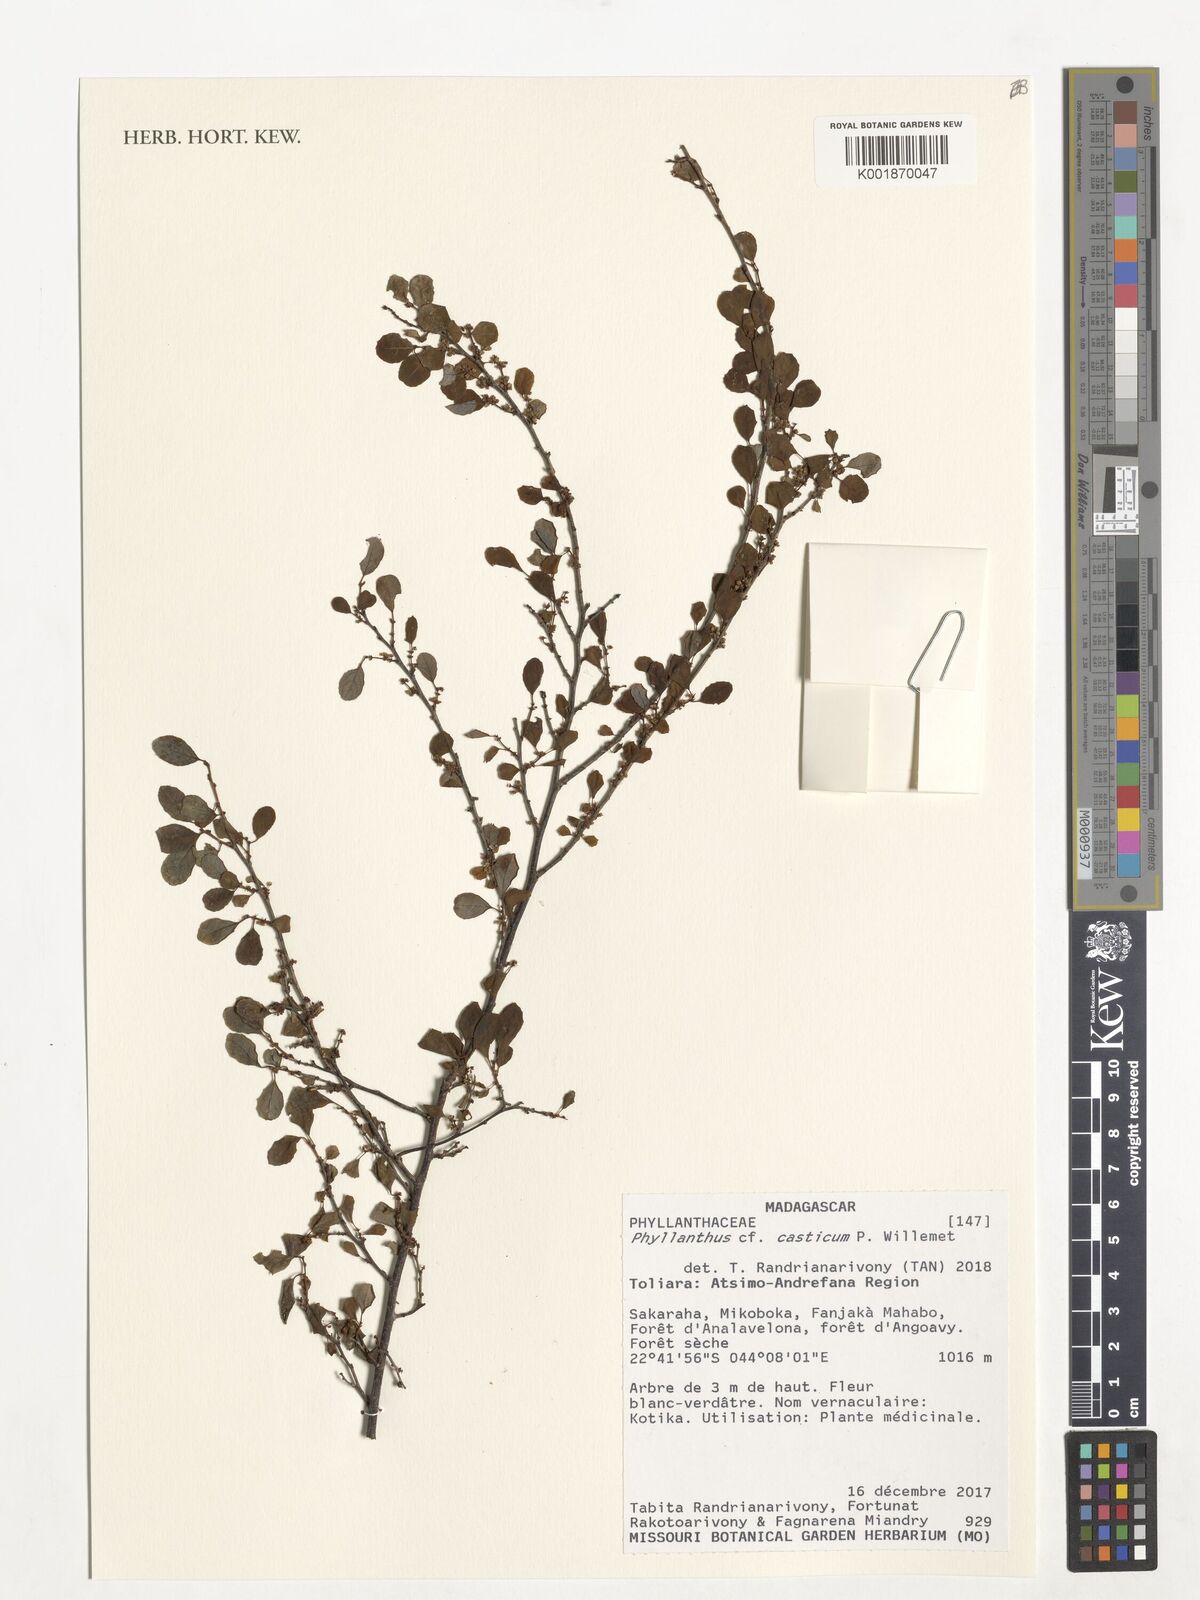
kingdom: Plantae
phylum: Tracheophyta
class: Magnoliopsida
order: Malpighiales
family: Phyllanthaceae
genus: Phyllanthus
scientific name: Phyllanthus casticum
